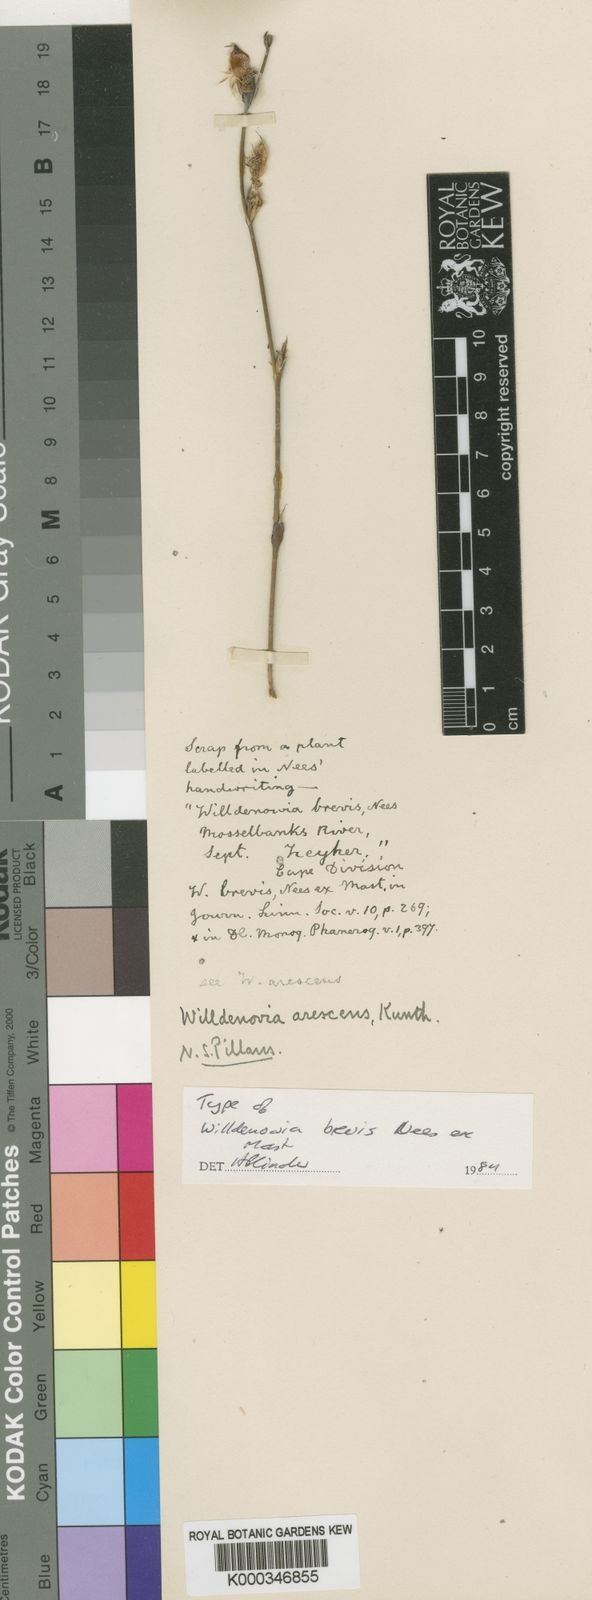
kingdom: Plantae
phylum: Tracheophyta
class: Liliopsida
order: Poales
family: Restionaceae
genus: Willdenowia
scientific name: Willdenowia arescens
